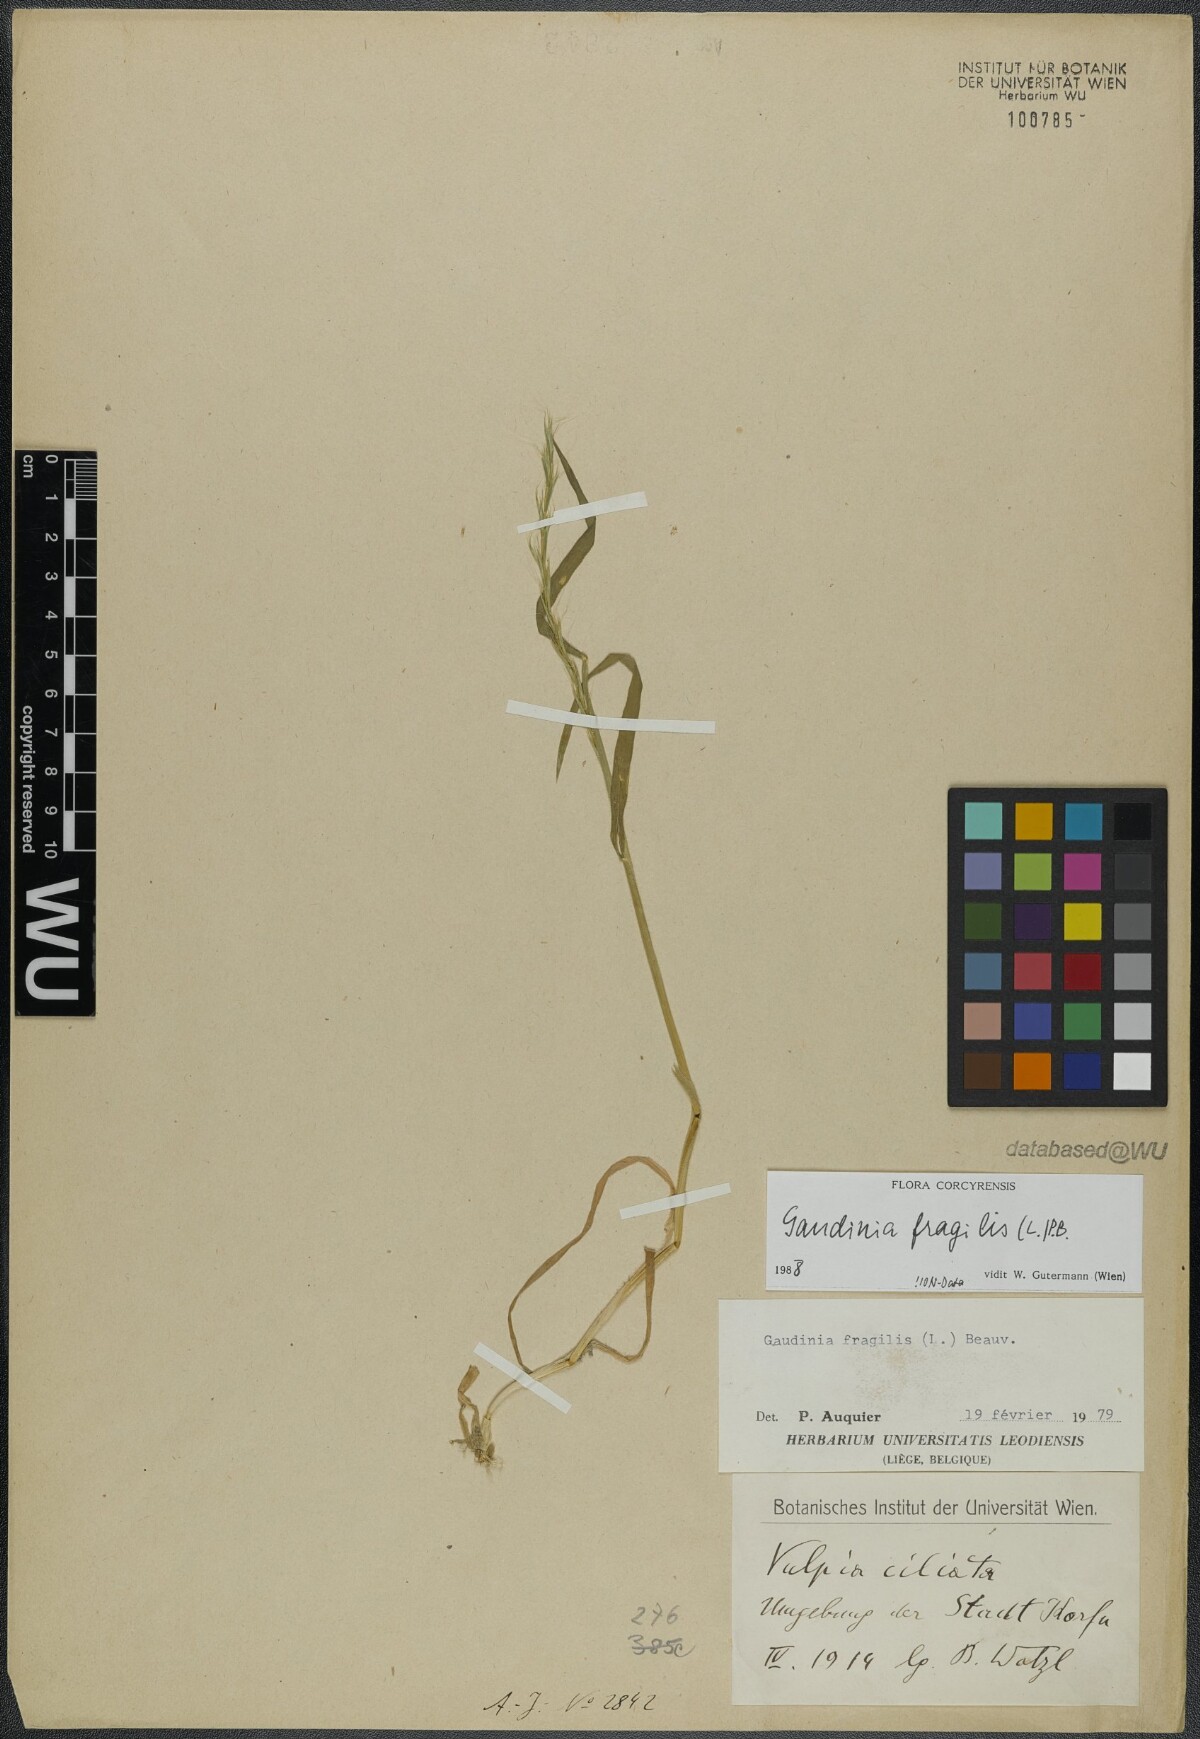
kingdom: Plantae
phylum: Tracheophyta
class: Liliopsida
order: Poales
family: Poaceae
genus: Gaudinia
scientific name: Gaudinia fragilis
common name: French oat-grass
